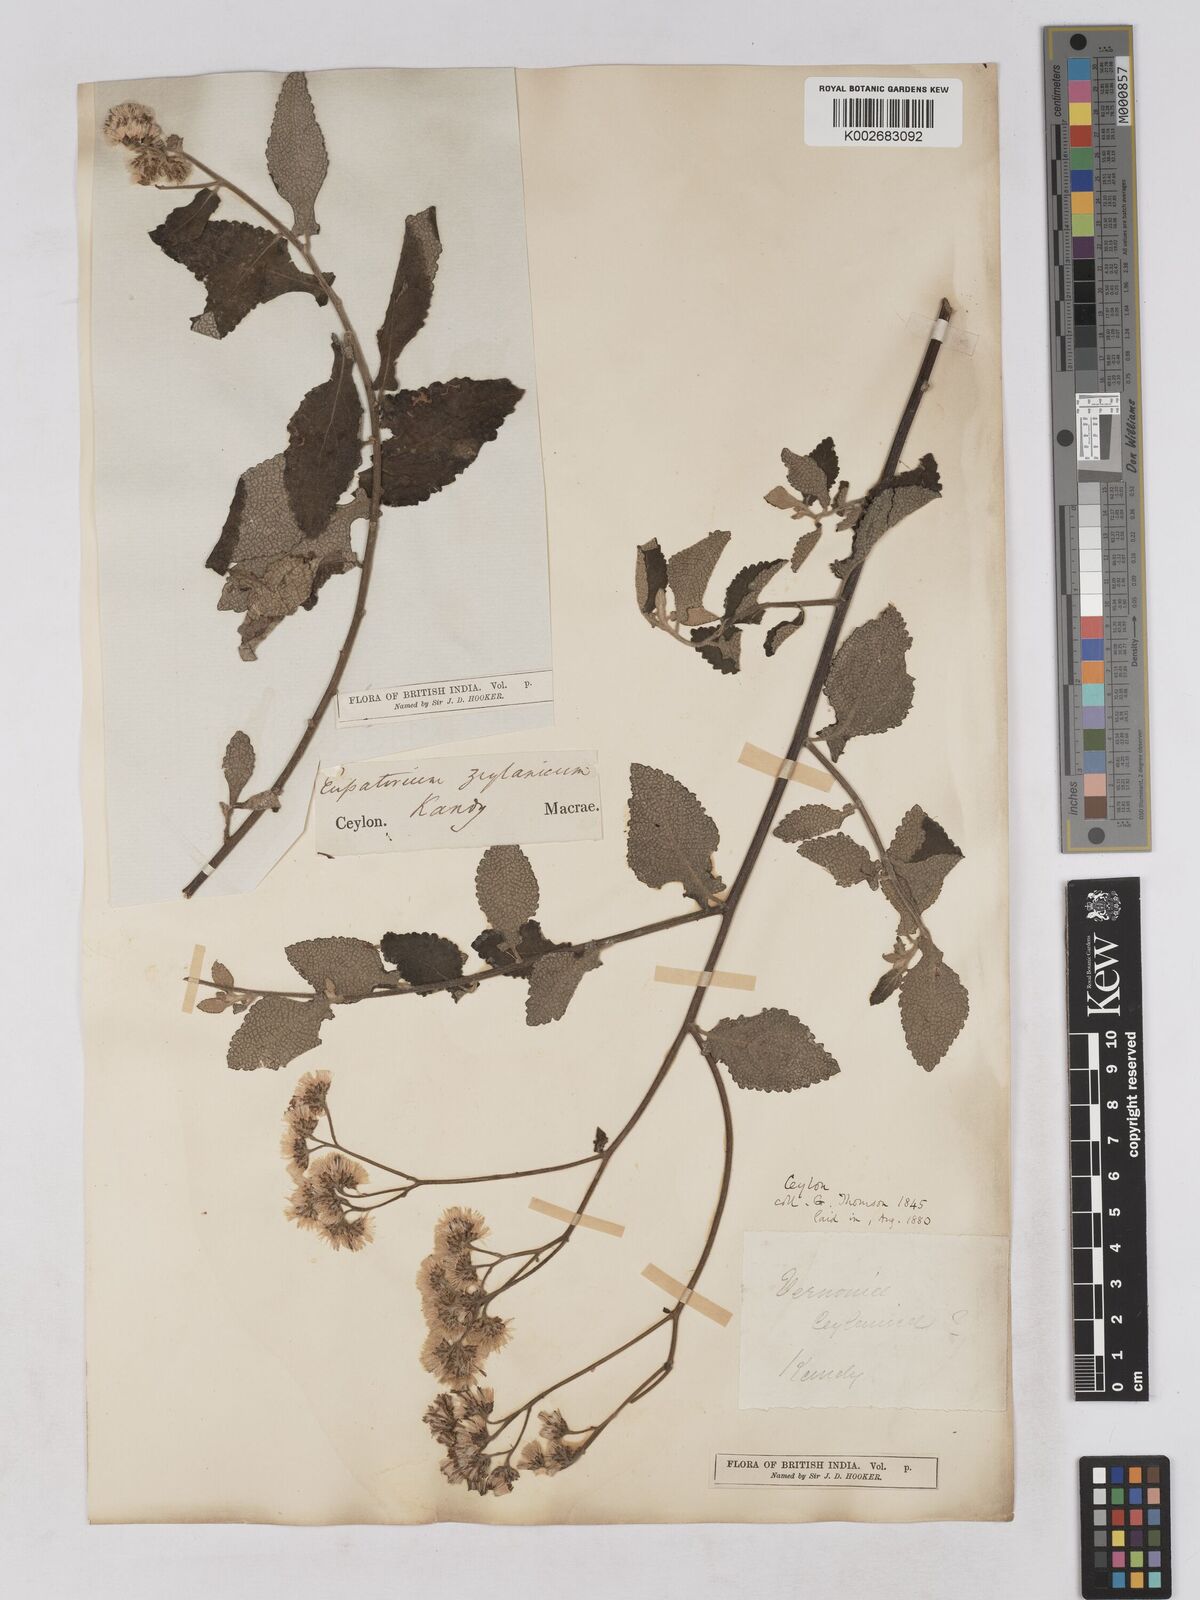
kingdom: Plantae
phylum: Tracheophyta
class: Magnoliopsida
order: Asterales
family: Asteraceae
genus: Jeffreycia
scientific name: Jeffreycia zeylanica
